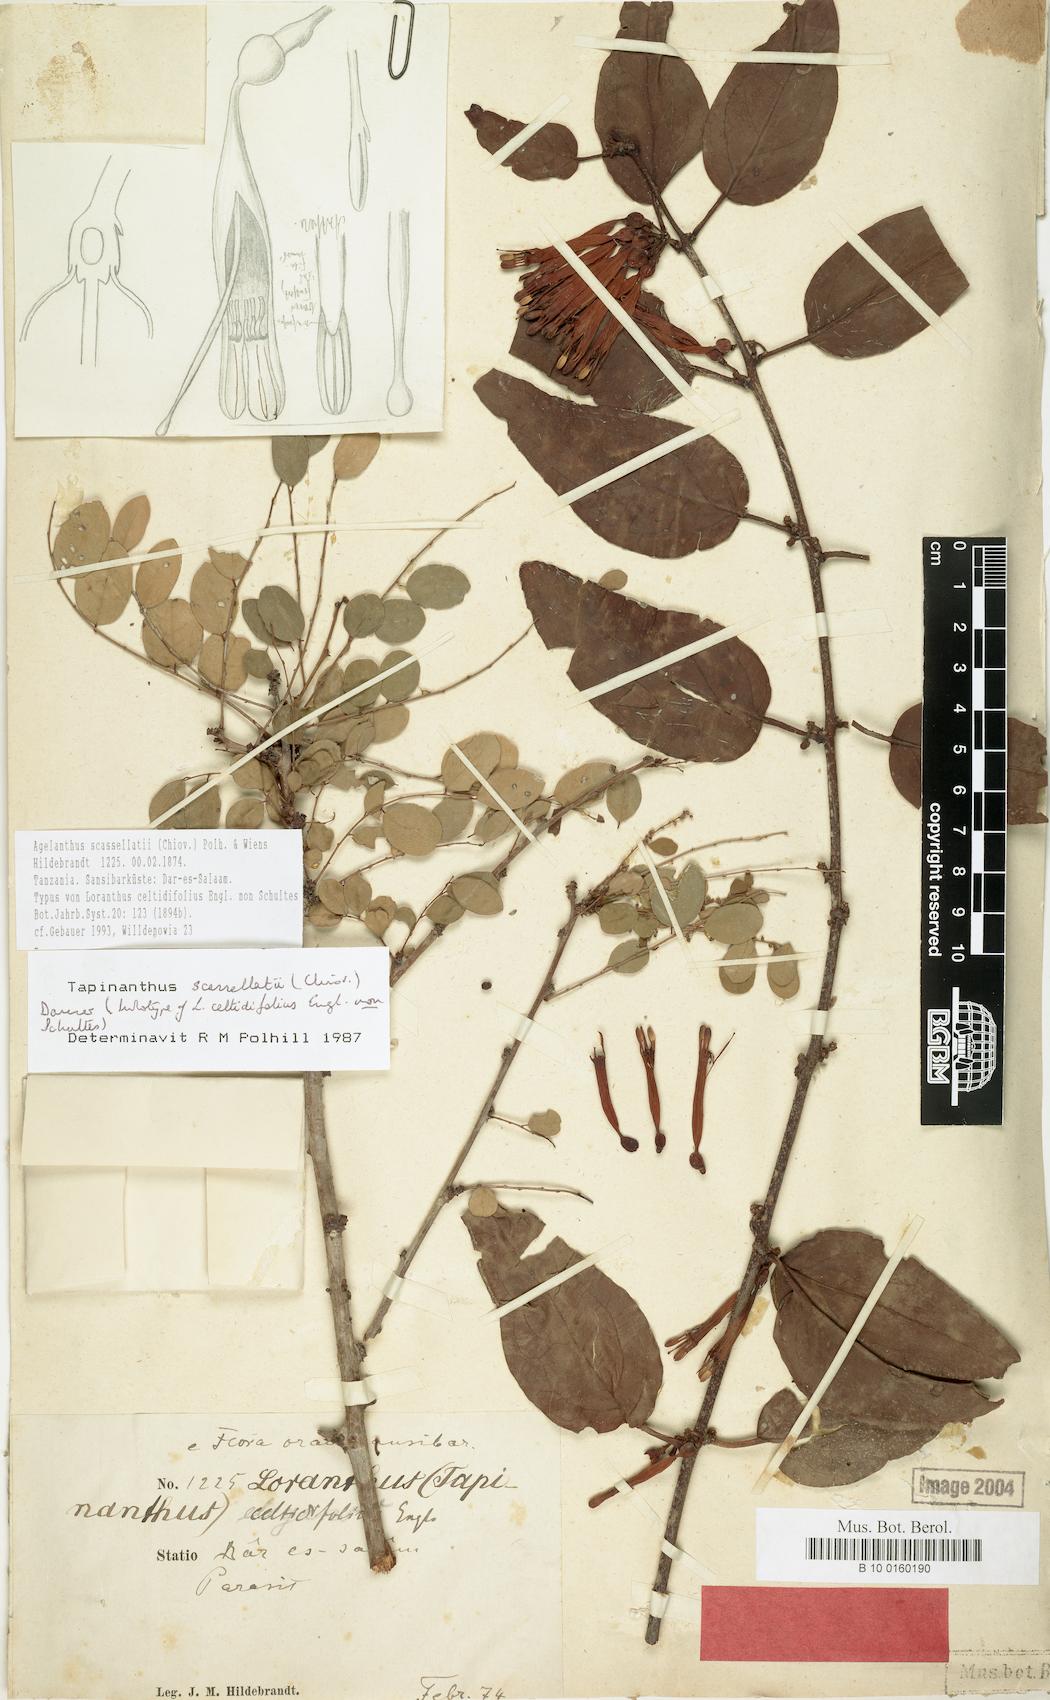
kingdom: Plantae
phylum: Tracheophyta
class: Magnoliopsida
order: Santalales
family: Loranthaceae
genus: Agelanthus
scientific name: Agelanthus heteromorphus
